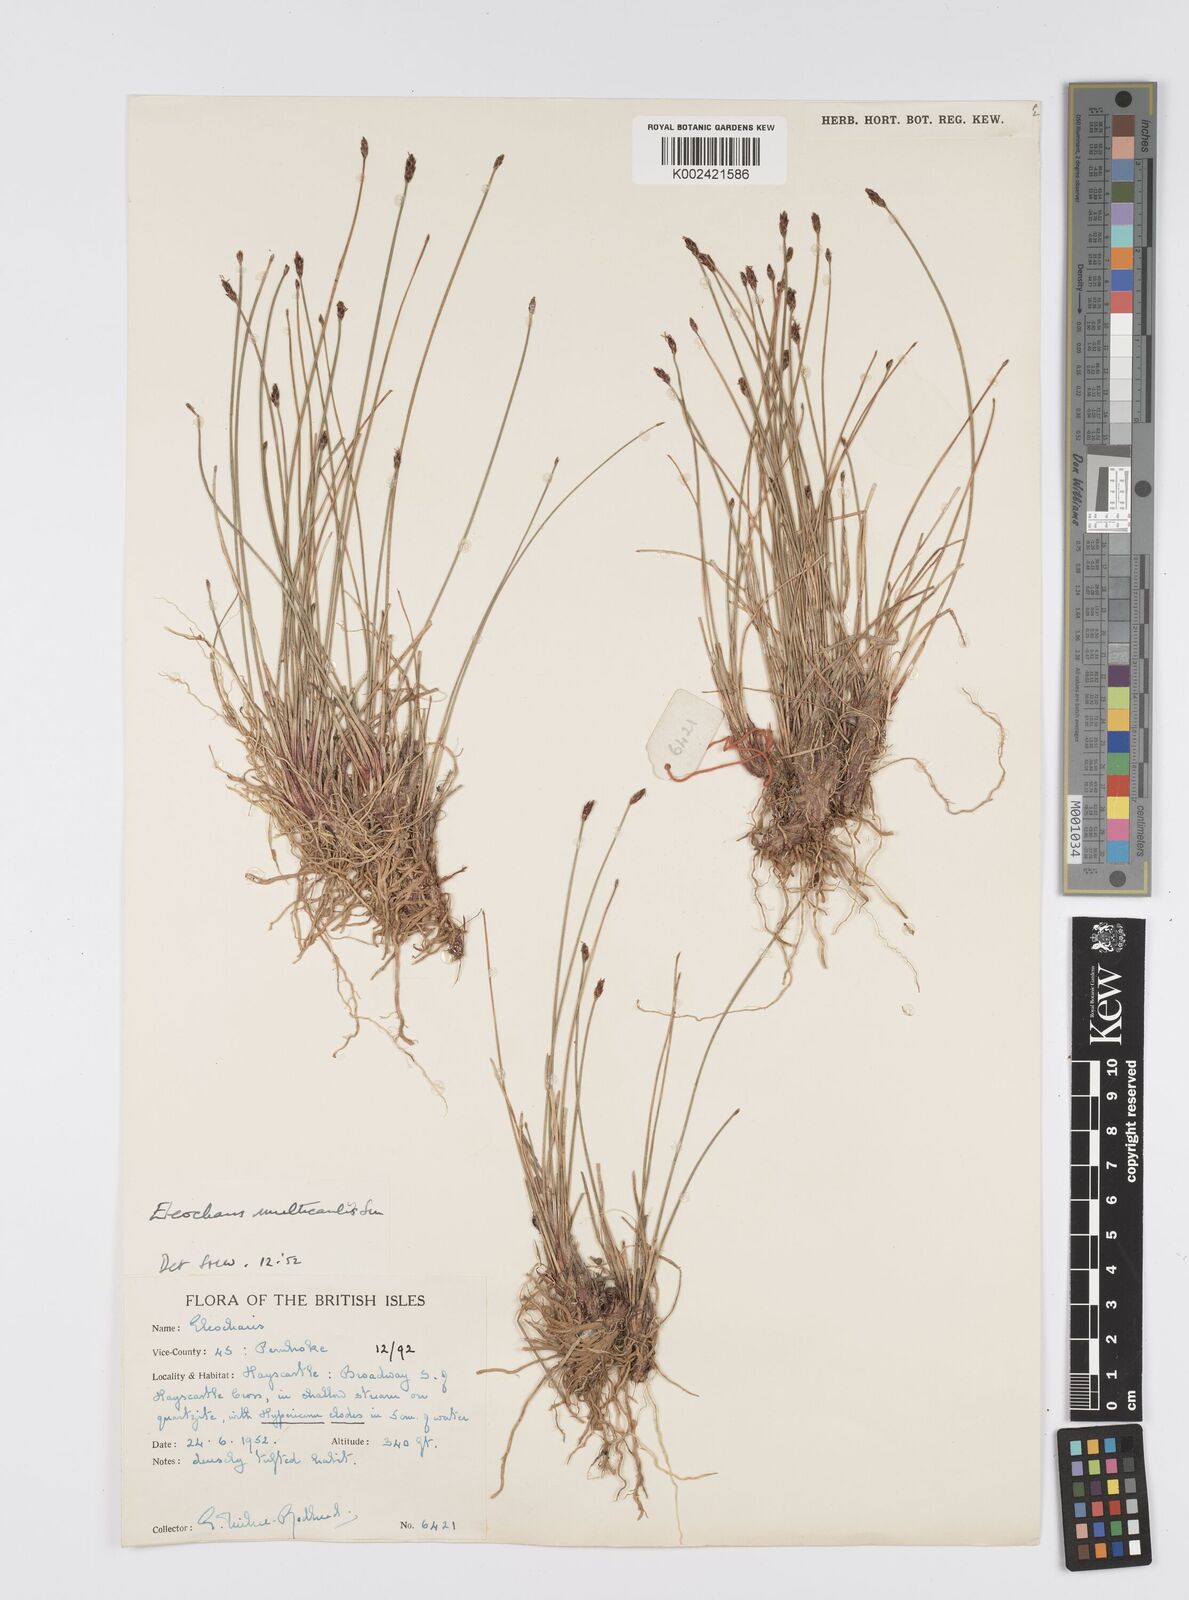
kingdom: Plantae
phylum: Tracheophyta
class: Liliopsida
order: Poales
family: Cyperaceae
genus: Eleocharis
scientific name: Eleocharis multicaulis
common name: Many-stalked spike-rush
